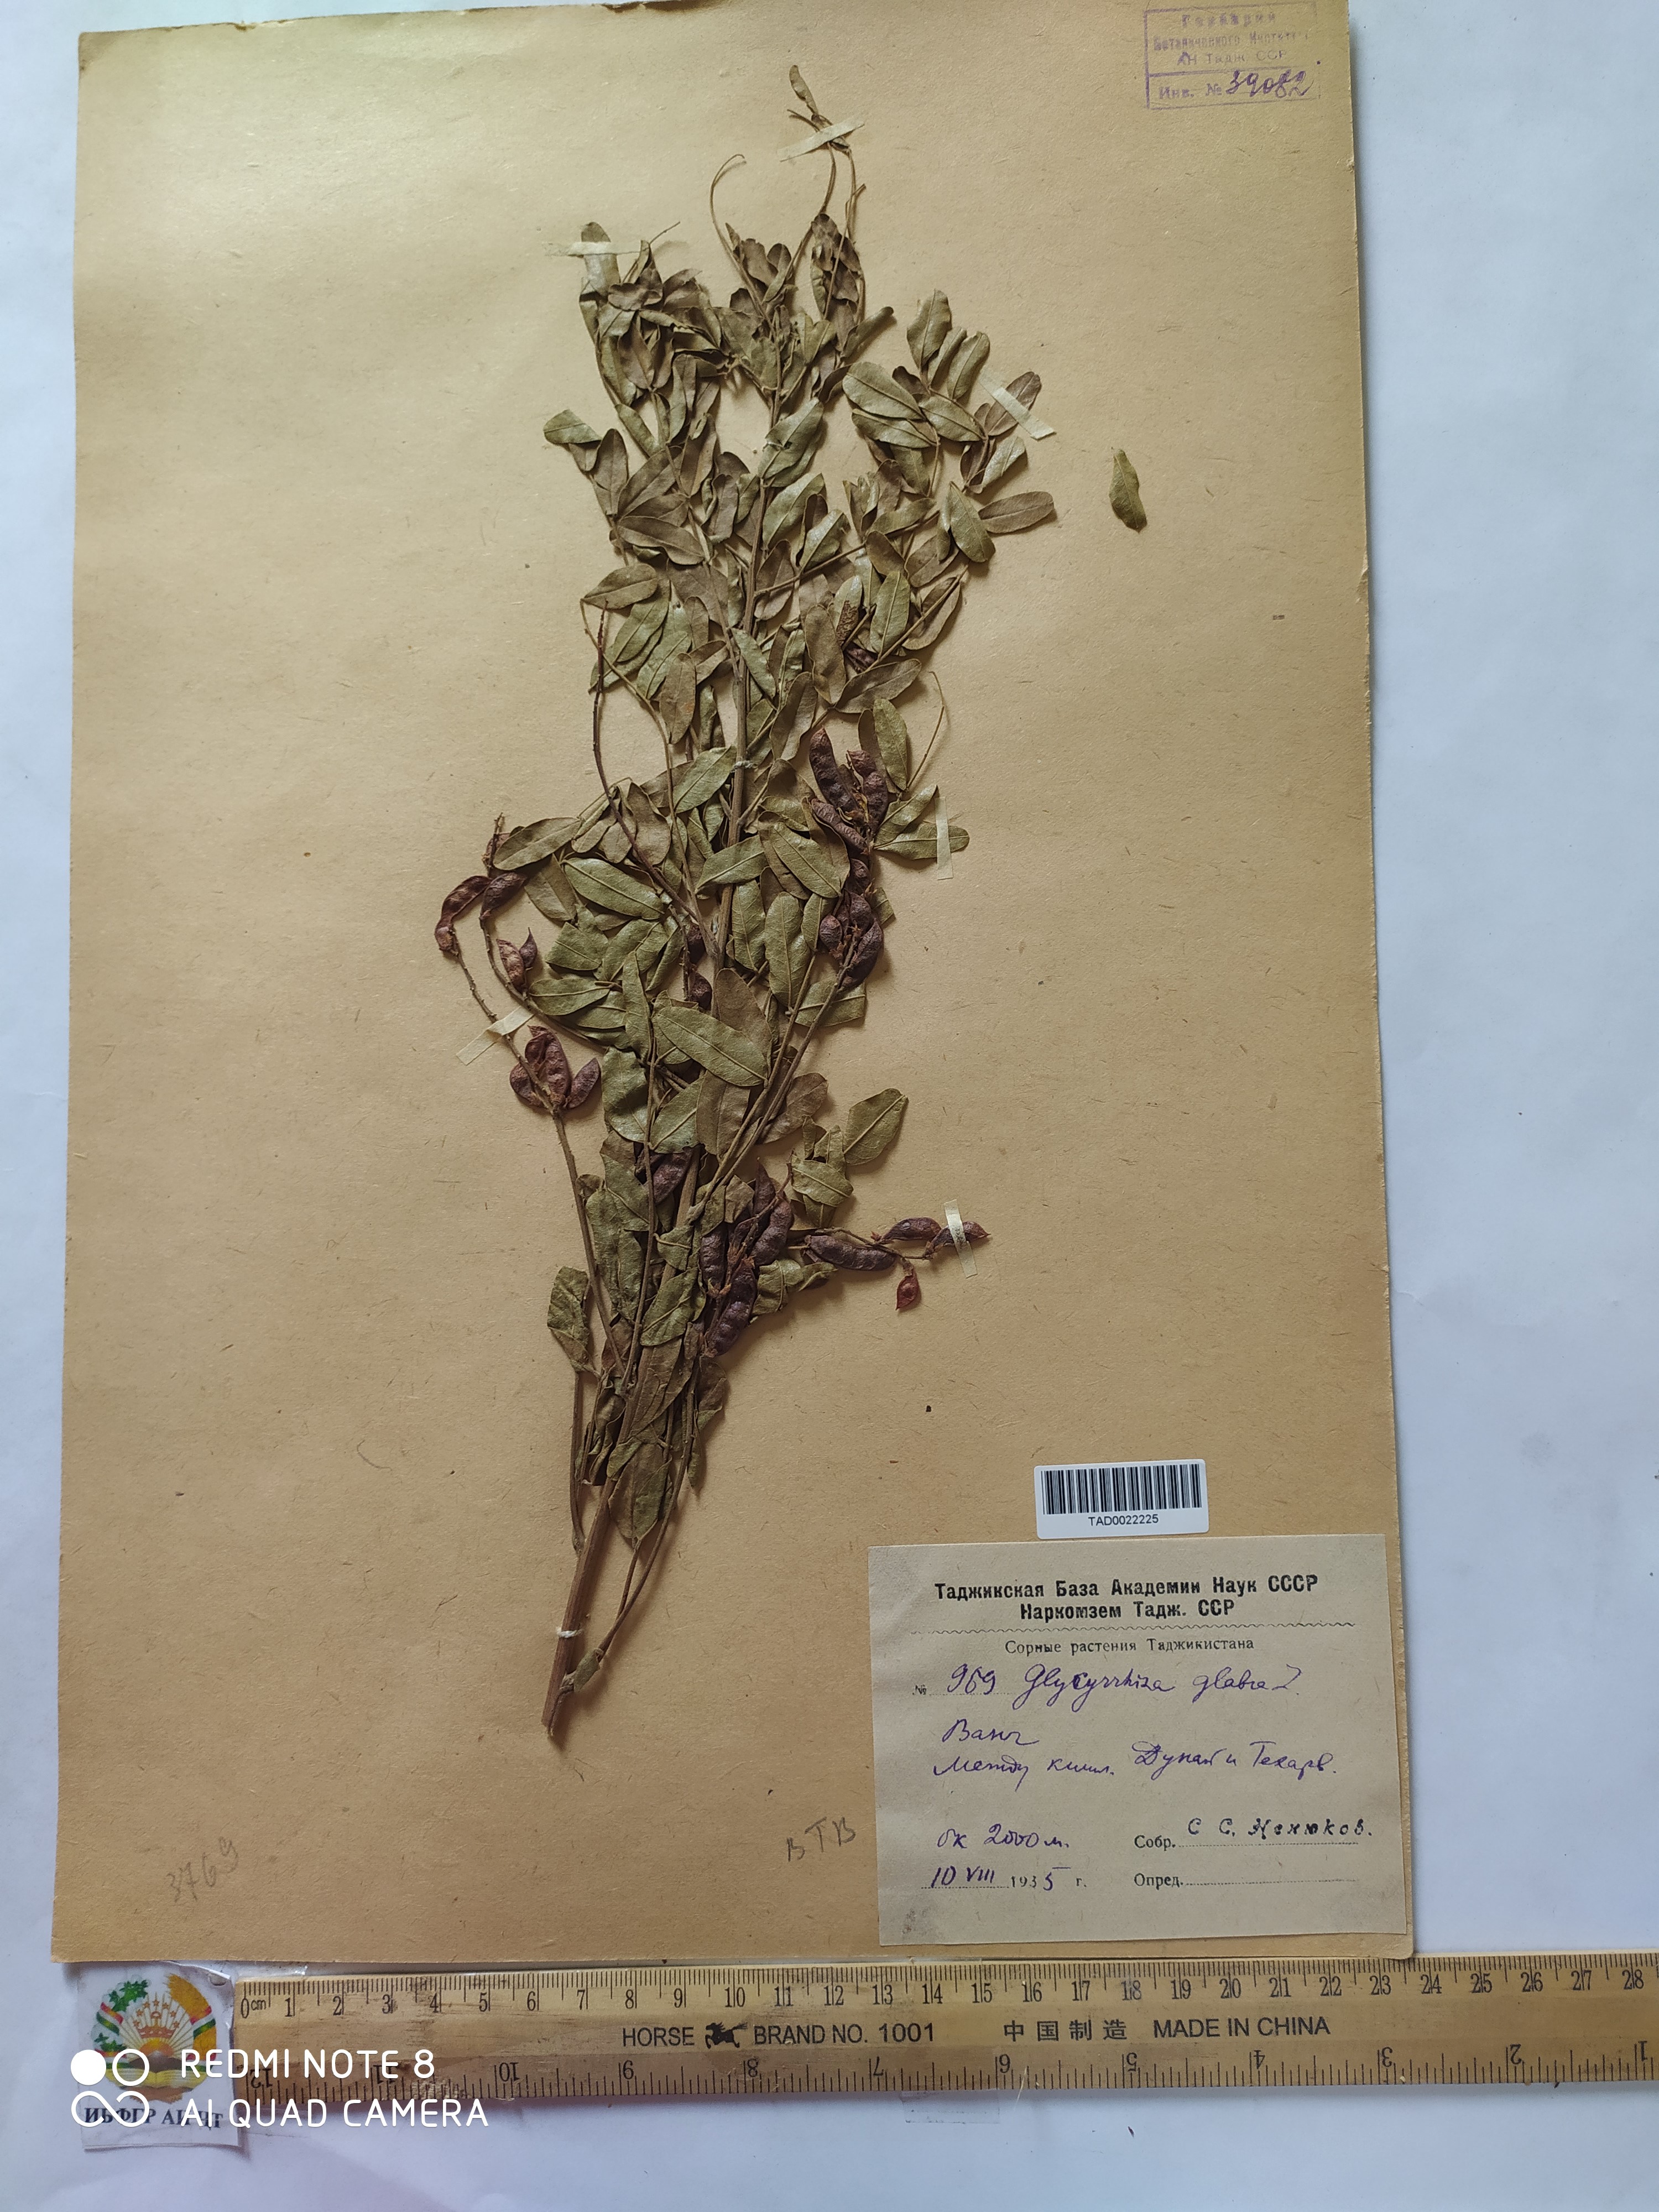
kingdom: Plantae
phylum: Tracheophyta
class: Magnoliopsida
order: Fabales
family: Fabaceae
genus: Glycyrrhiza
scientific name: Glycyrrhiza glabra
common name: Liquorice
